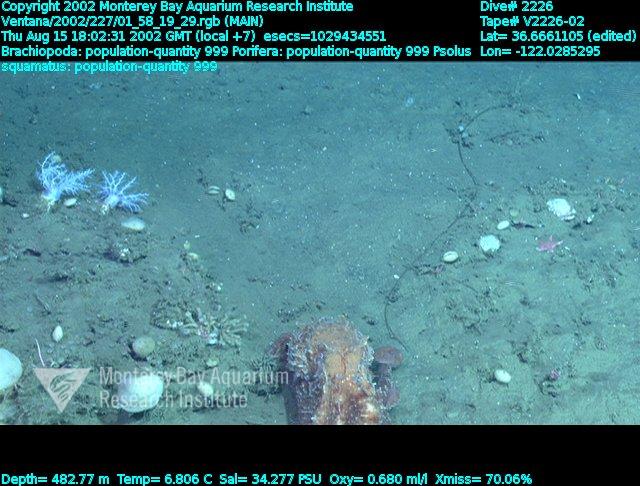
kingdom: Animalia
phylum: Porifera
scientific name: Porifera
